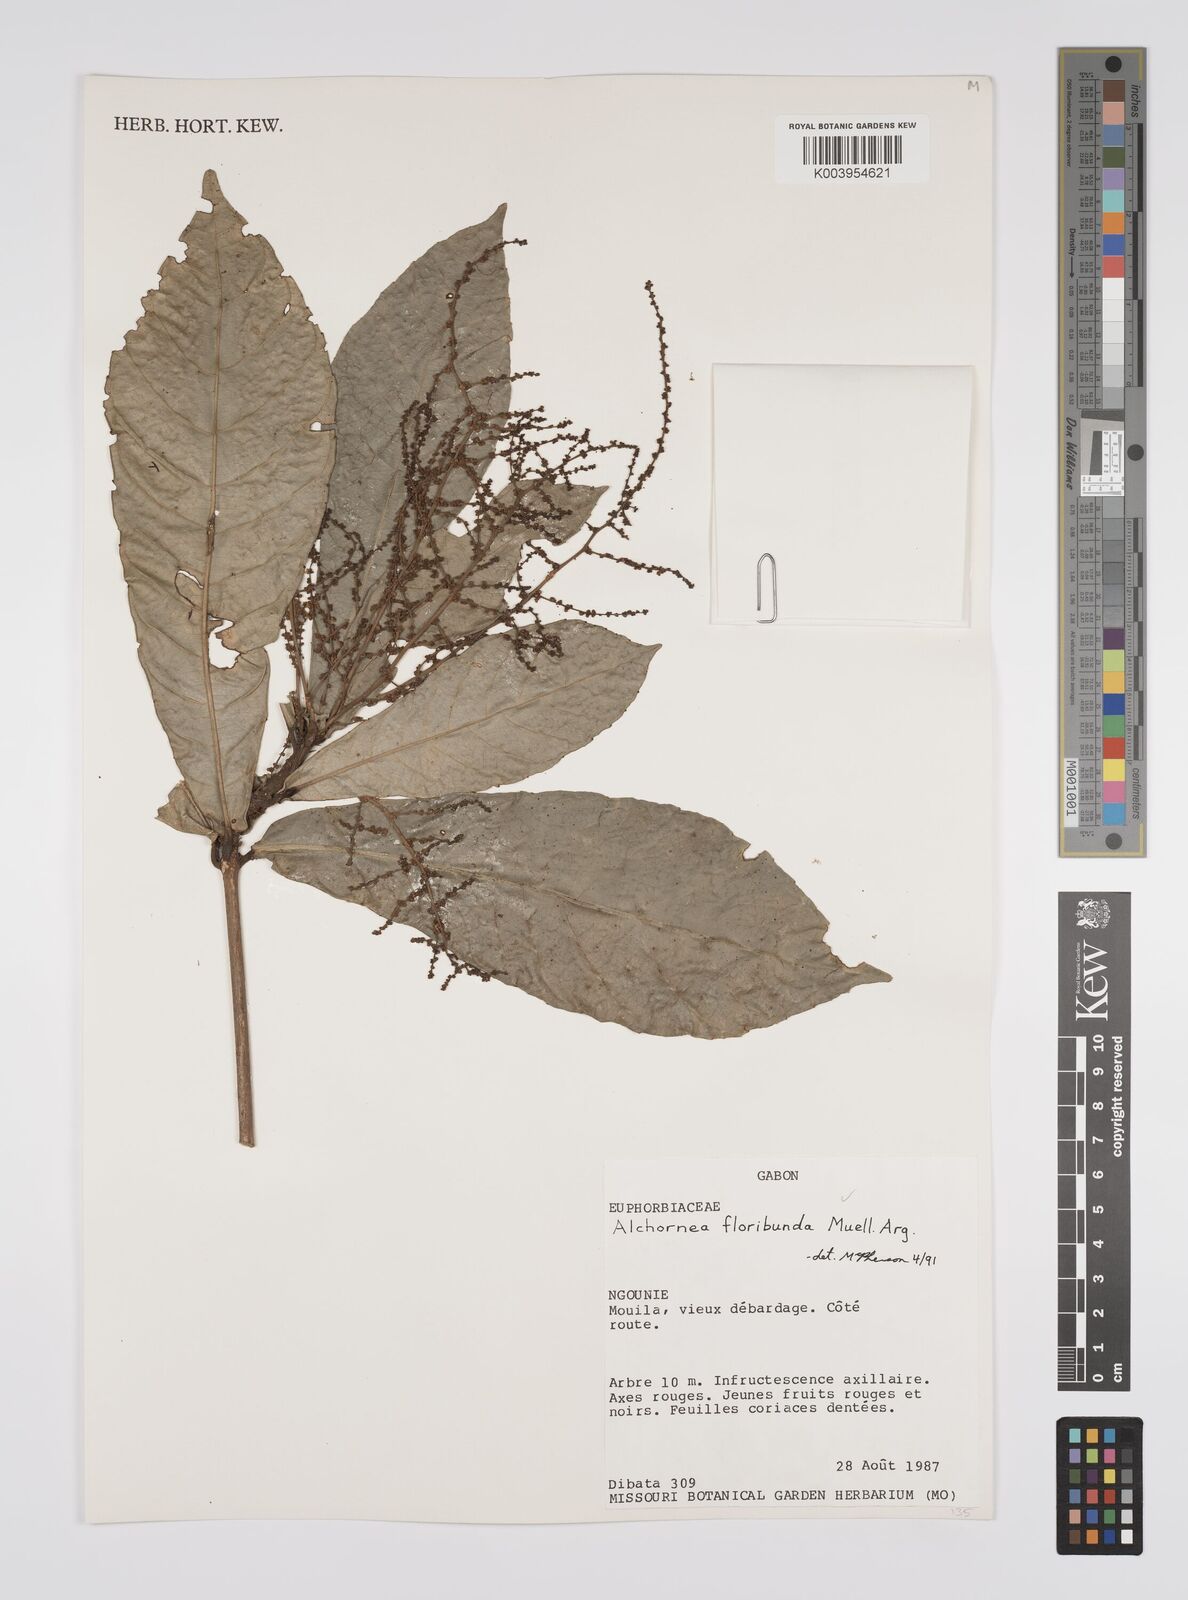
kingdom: Plantae
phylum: Tracheophyta
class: Magnoliopsida
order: Malpighiales
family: Euphorbiaceae
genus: Alchornea
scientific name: Alchornea floribunda
